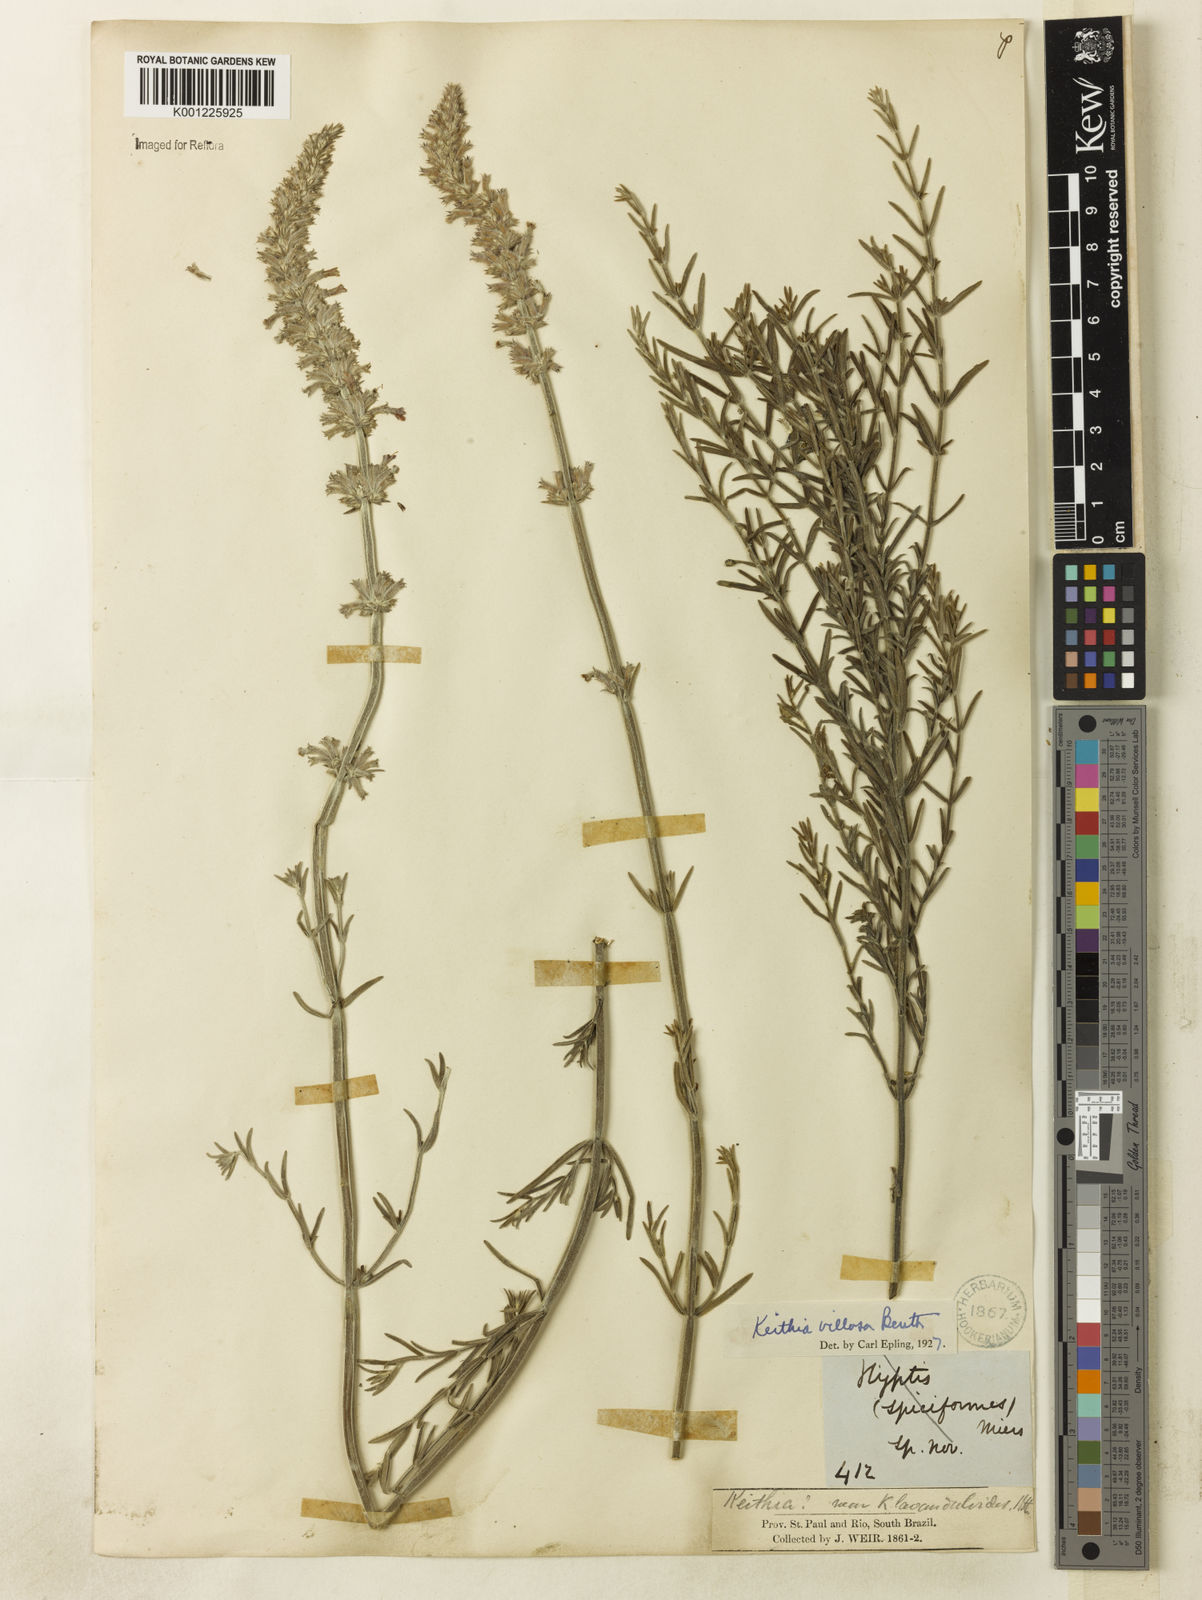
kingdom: Plantae
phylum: Tracheophyta
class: Magnoliopsida
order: Lamiales
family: Lamiaceae
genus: Rhabdocaulon
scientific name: Rhabdocaulon lavanduloides
